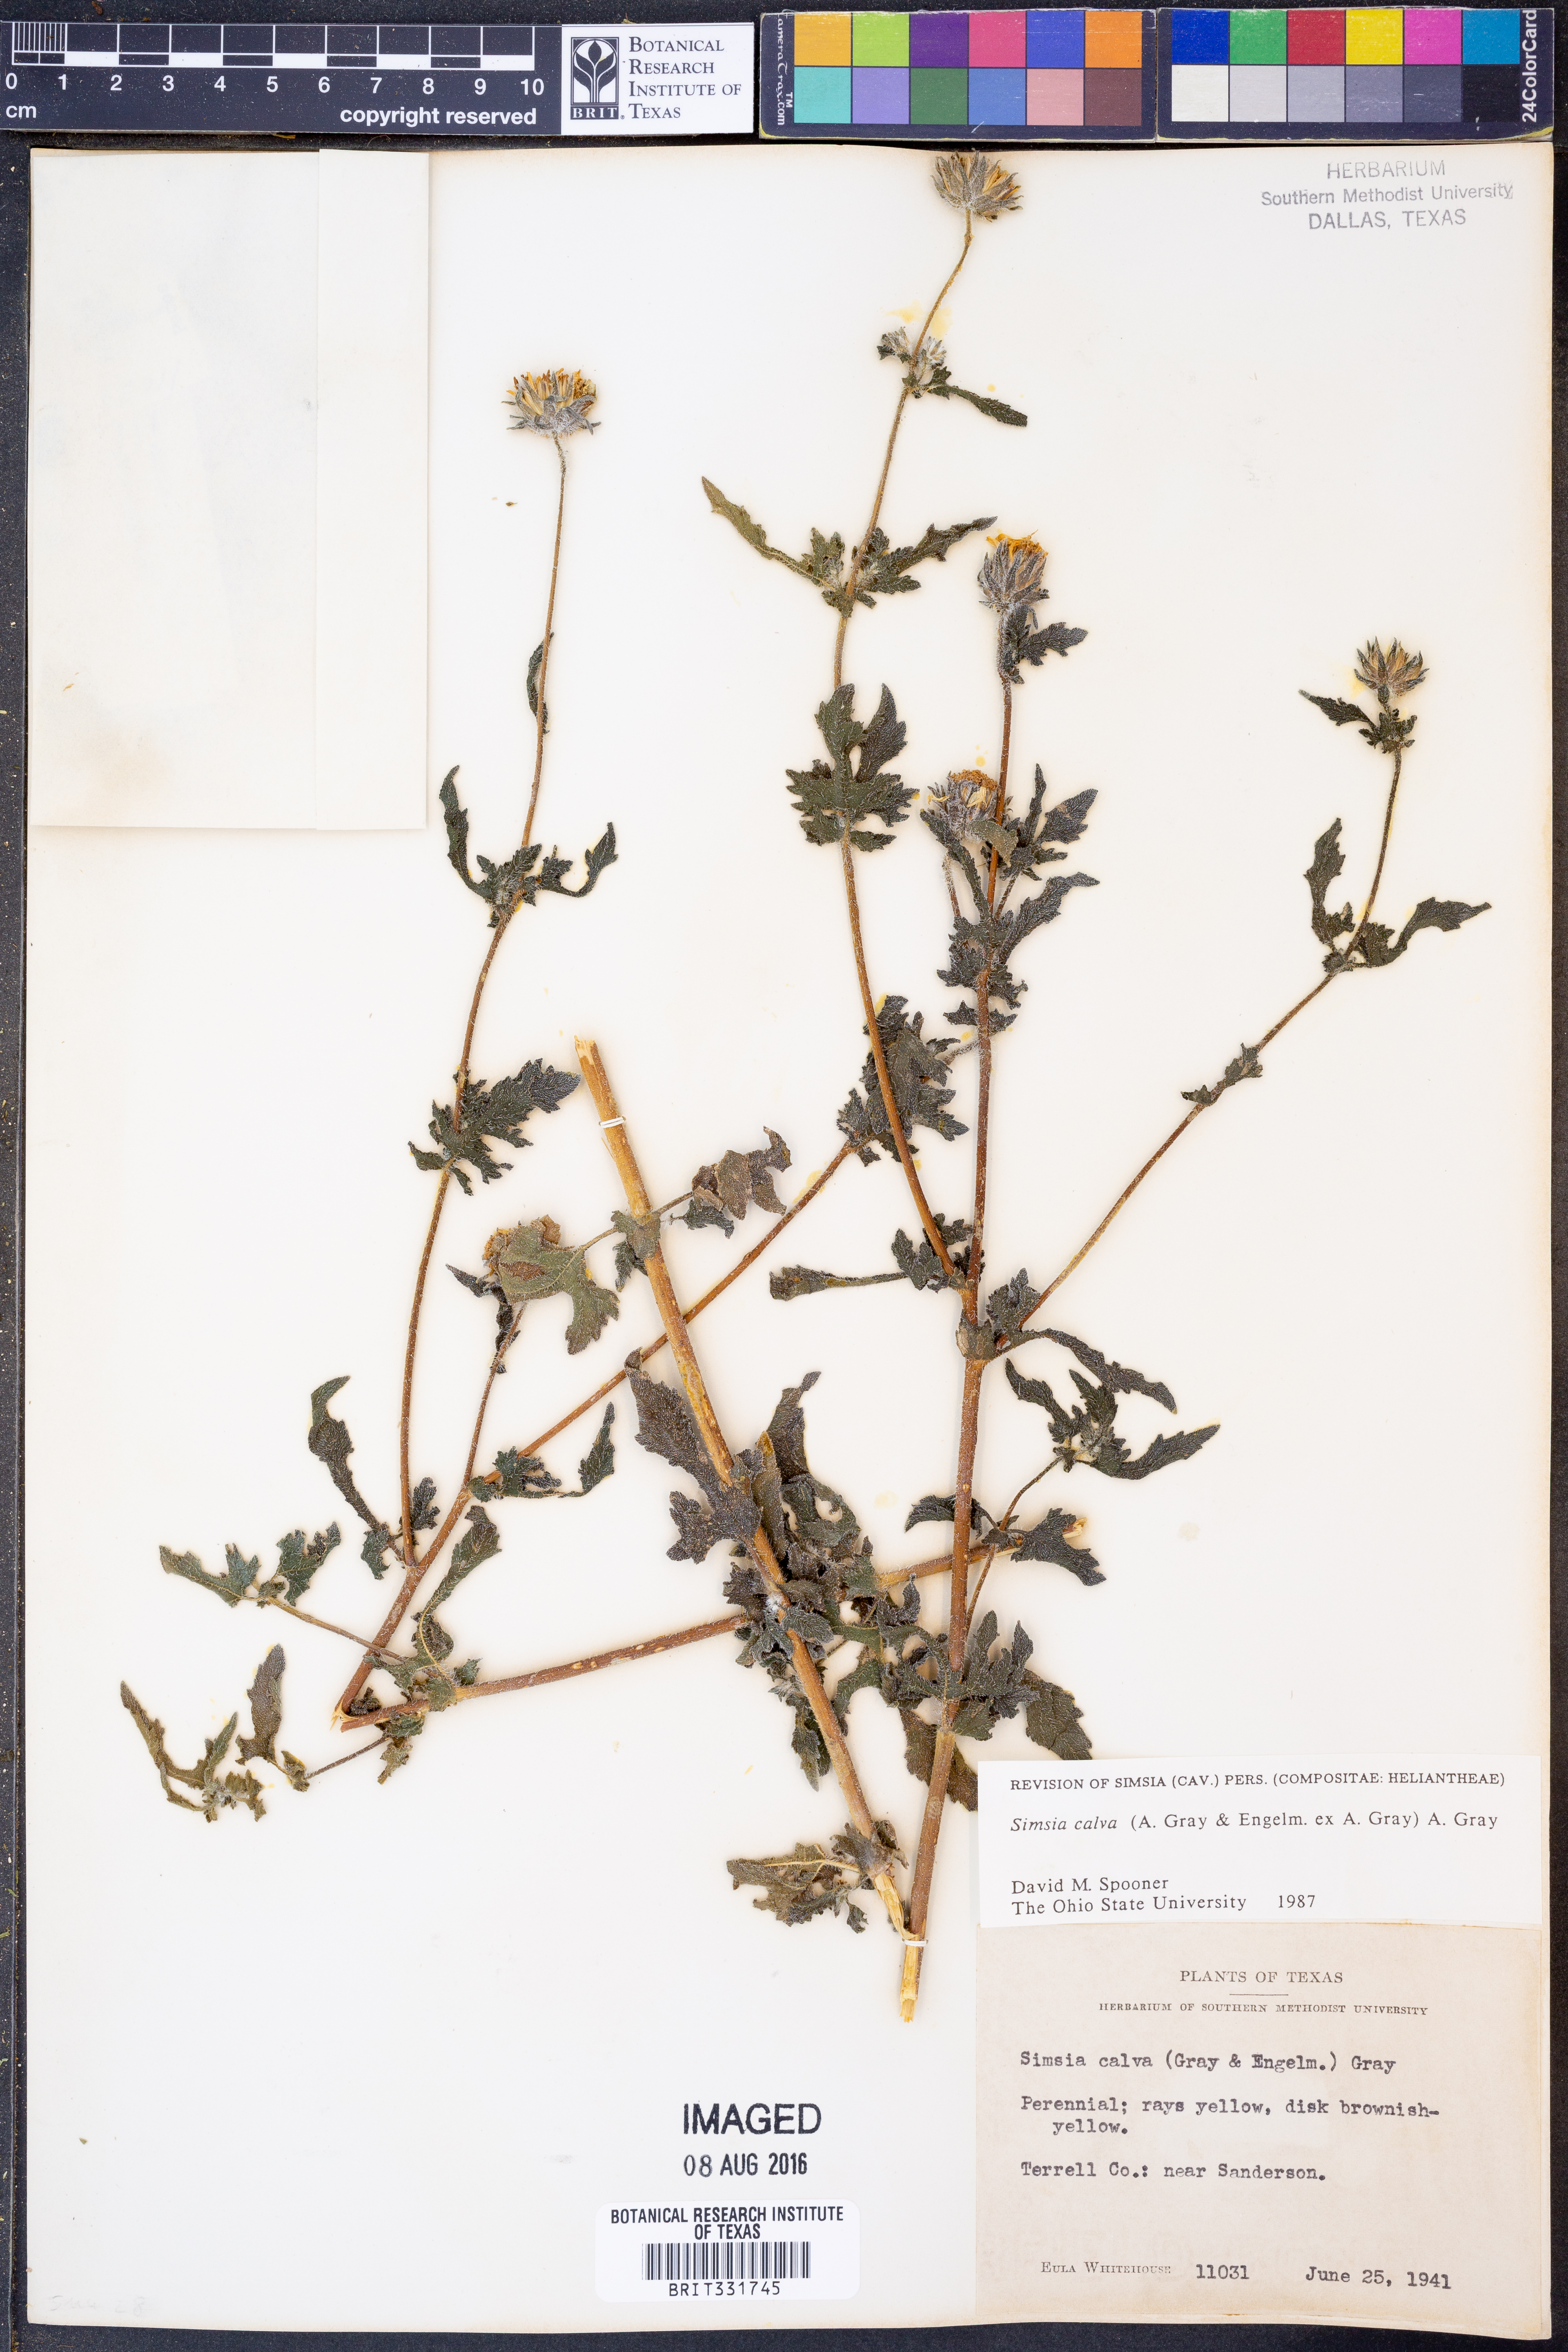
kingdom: Plantae
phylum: Tracheophyta
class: Magnoliopsida
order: Asterales
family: Asteraceae
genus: Simsia
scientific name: Simsia calva
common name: Awnless bush-sunflower
